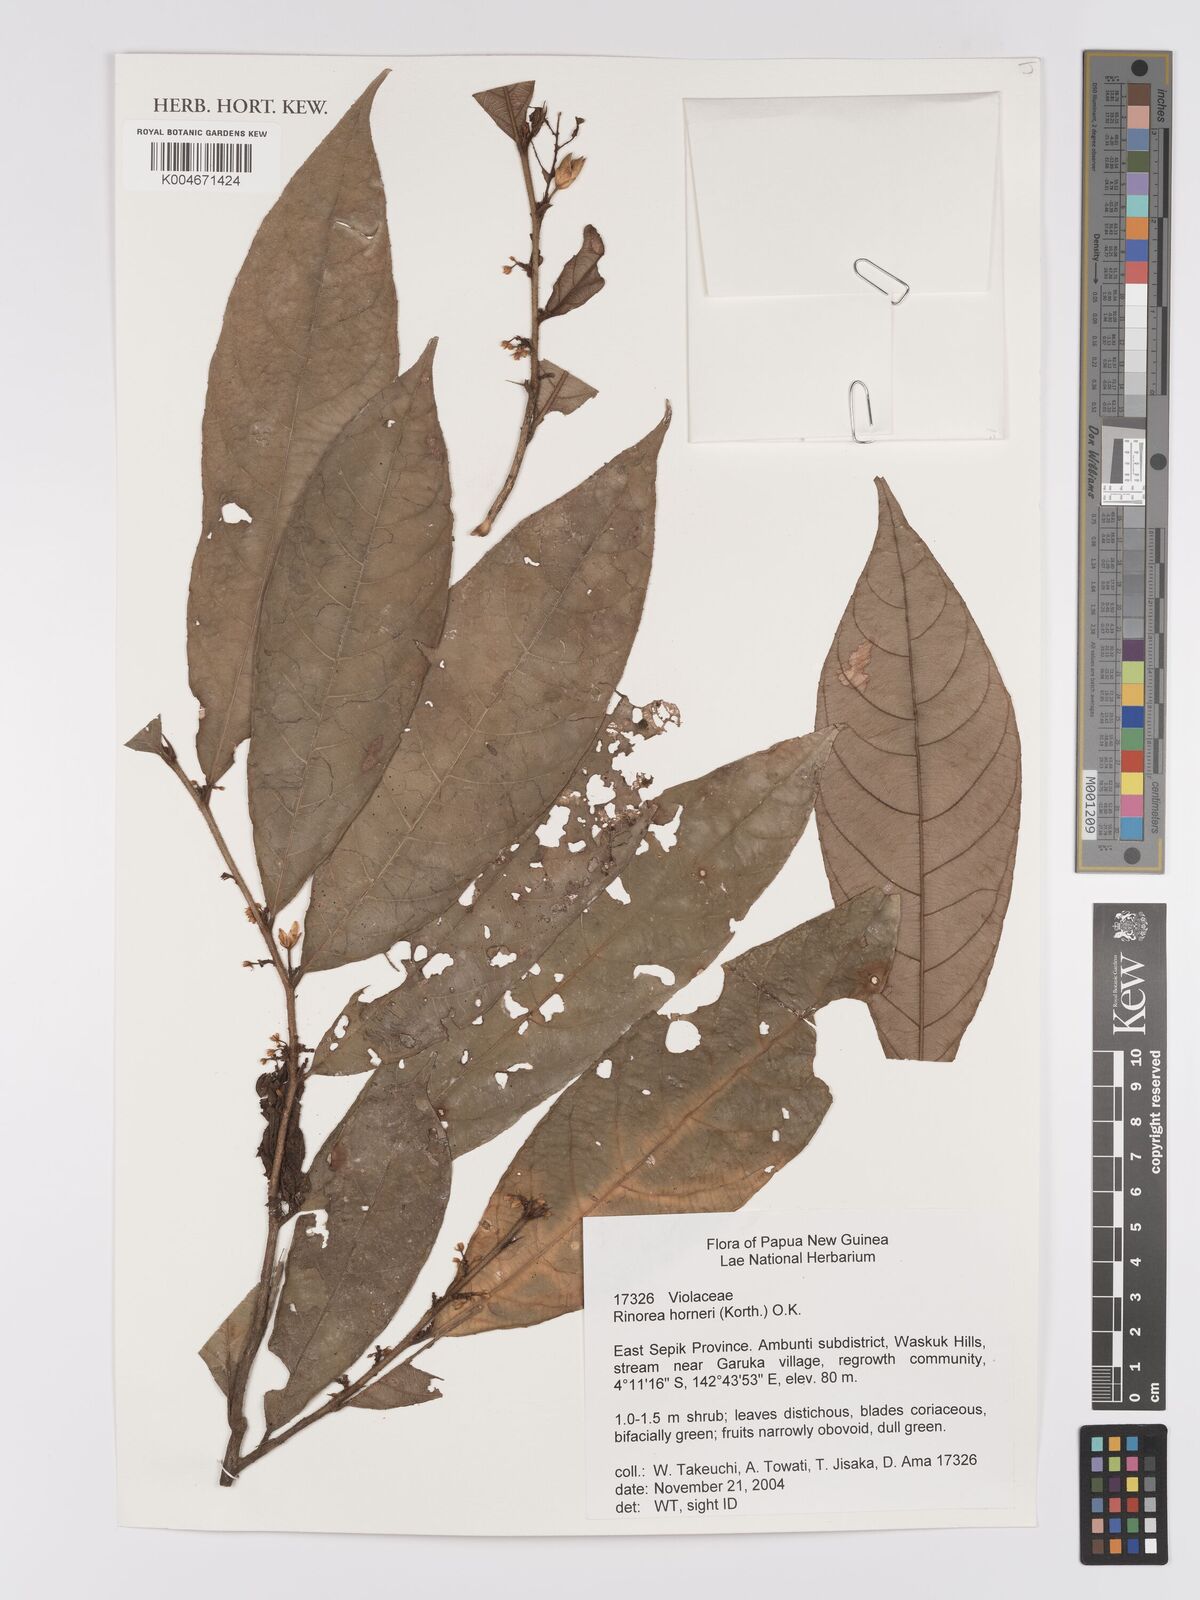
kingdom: Plantae
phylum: Tracheophyta
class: Magnoliopsida
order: Malpighiales
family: Violaceae
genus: Rinorea
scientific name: Rinorea horneri
